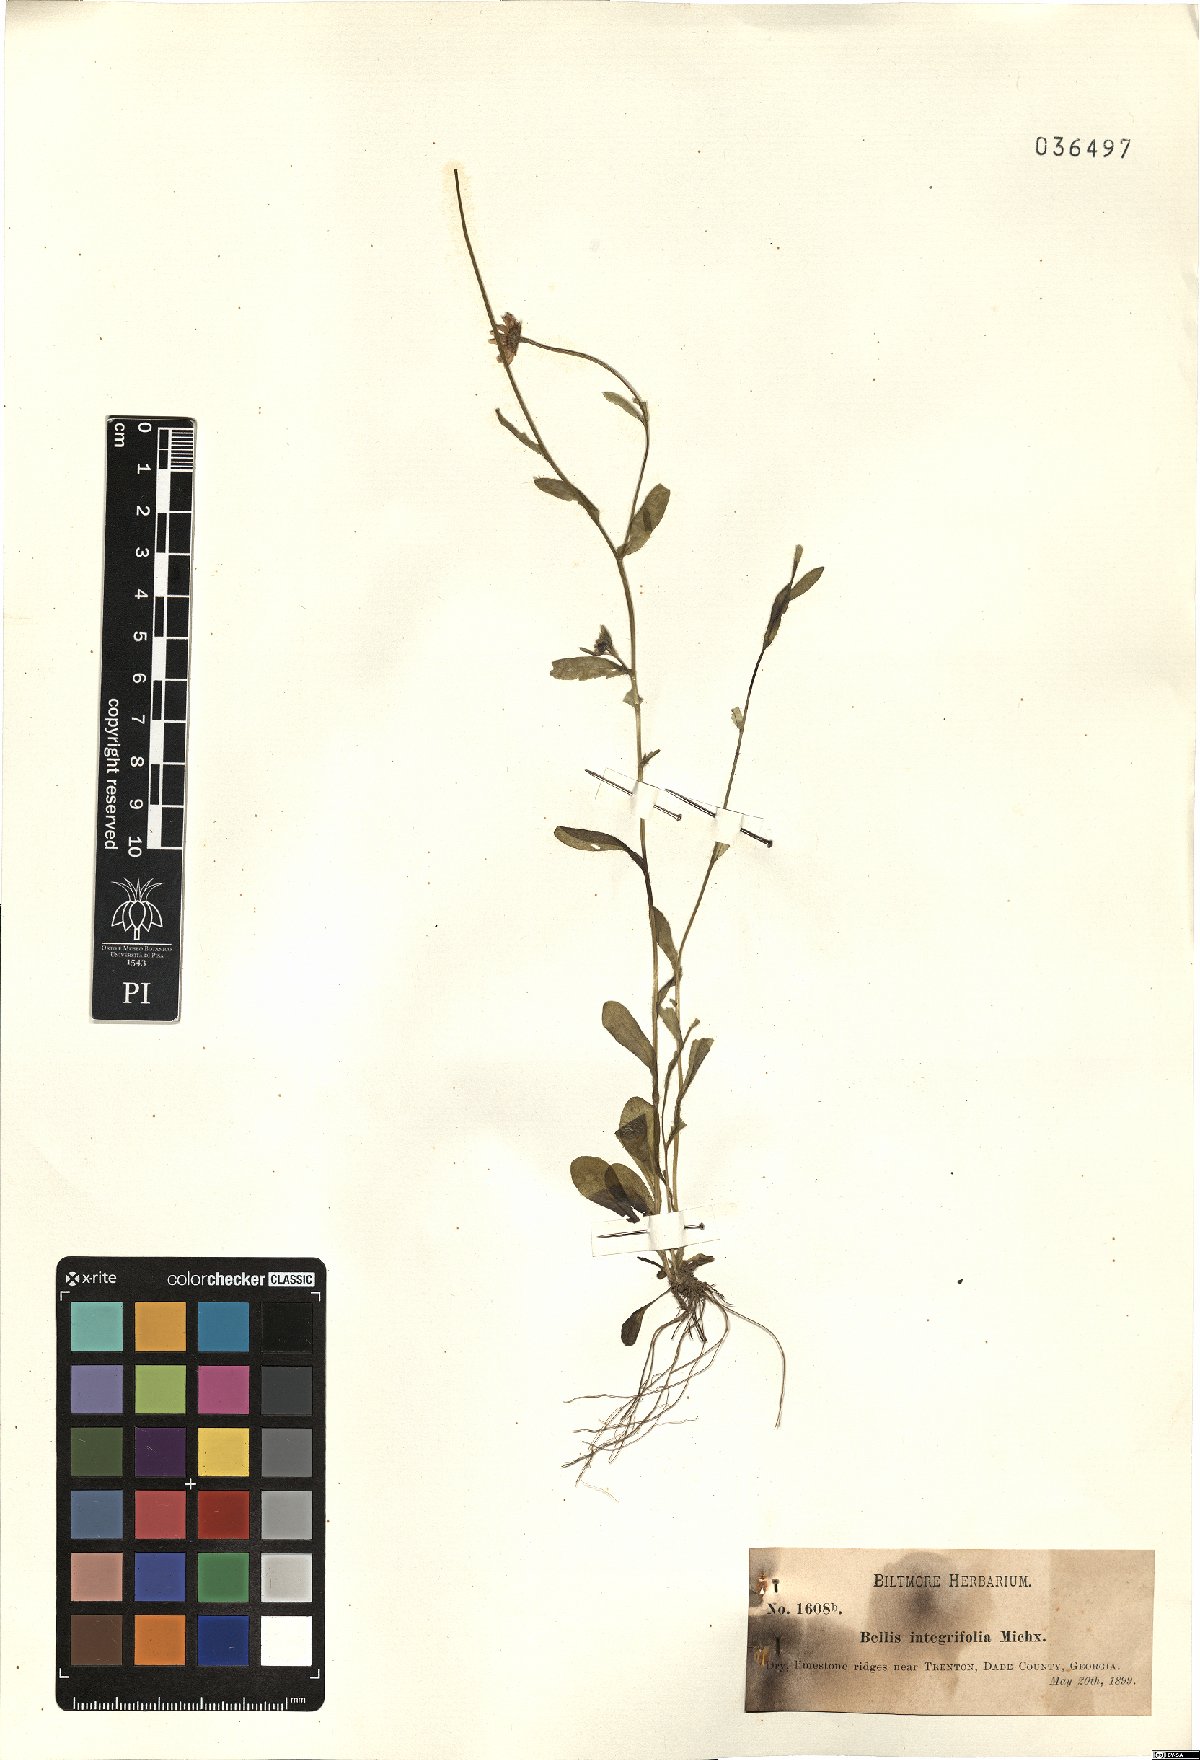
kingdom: Plantae
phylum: Tracheophyta
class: Magnoliopsida
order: Asterales
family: Asteraceae
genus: Bellis
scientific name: Bellis
